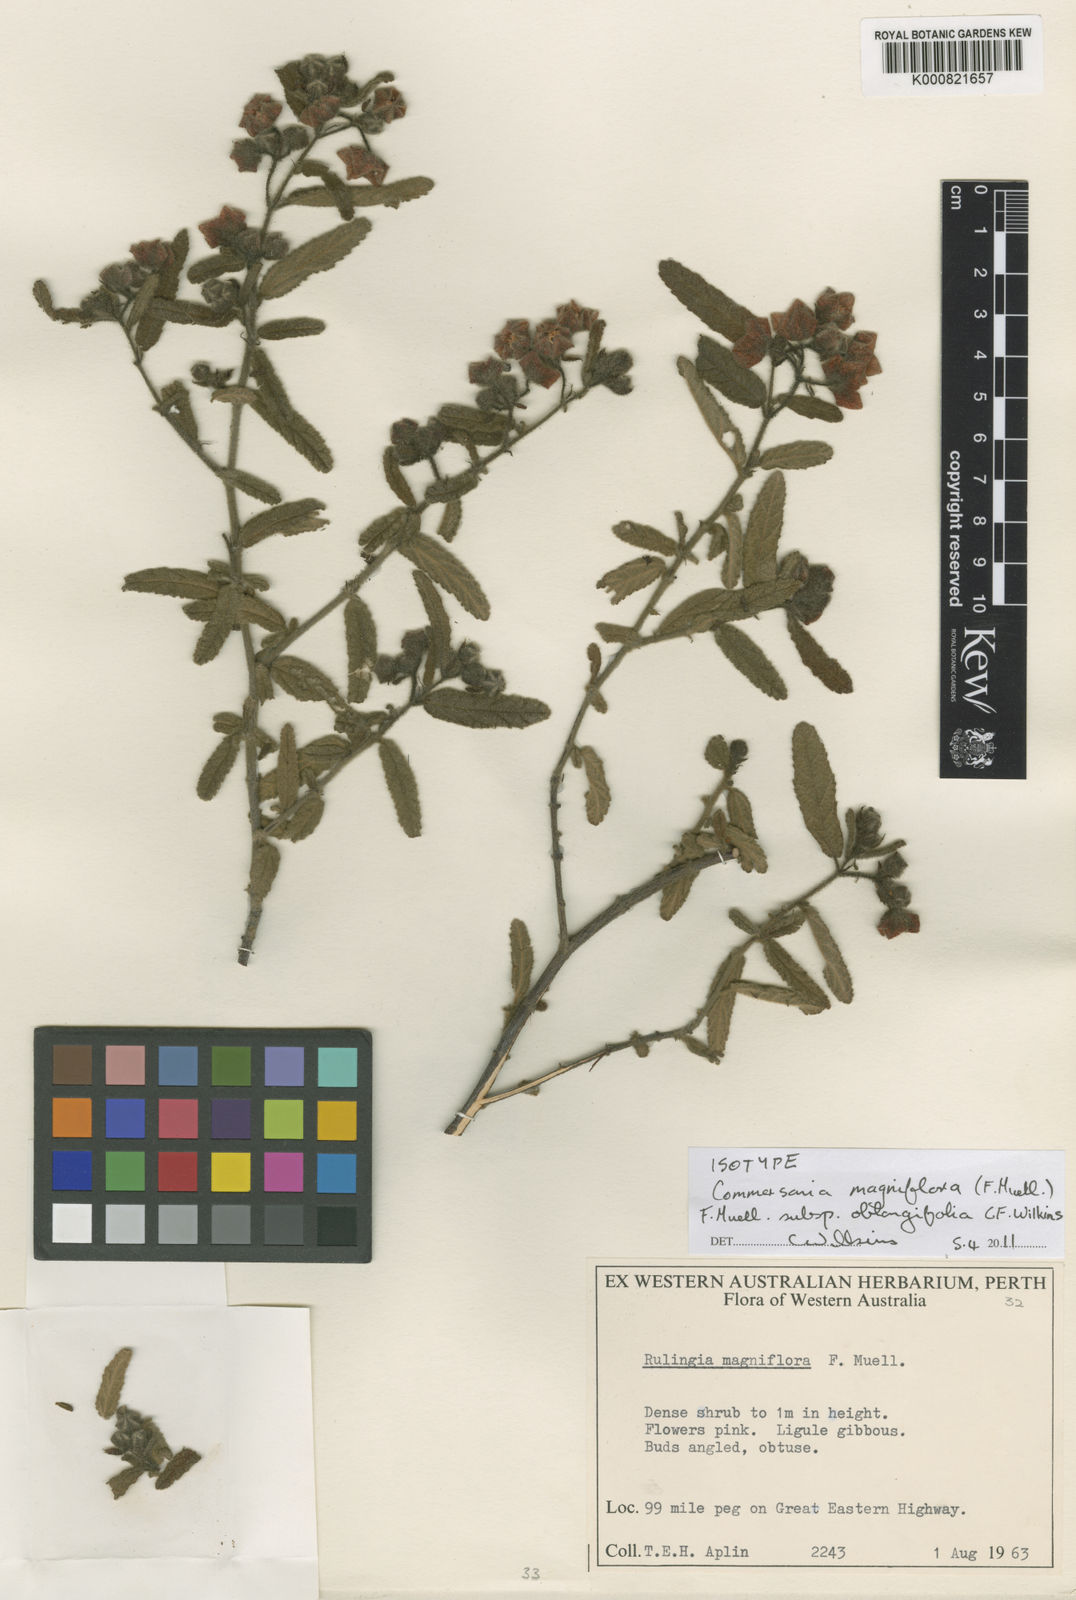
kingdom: Plantae
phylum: Tracheophyta
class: Magnoliopsida
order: Malvales
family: Malvaceae
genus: Commersonia
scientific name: Commersonia magniflora
